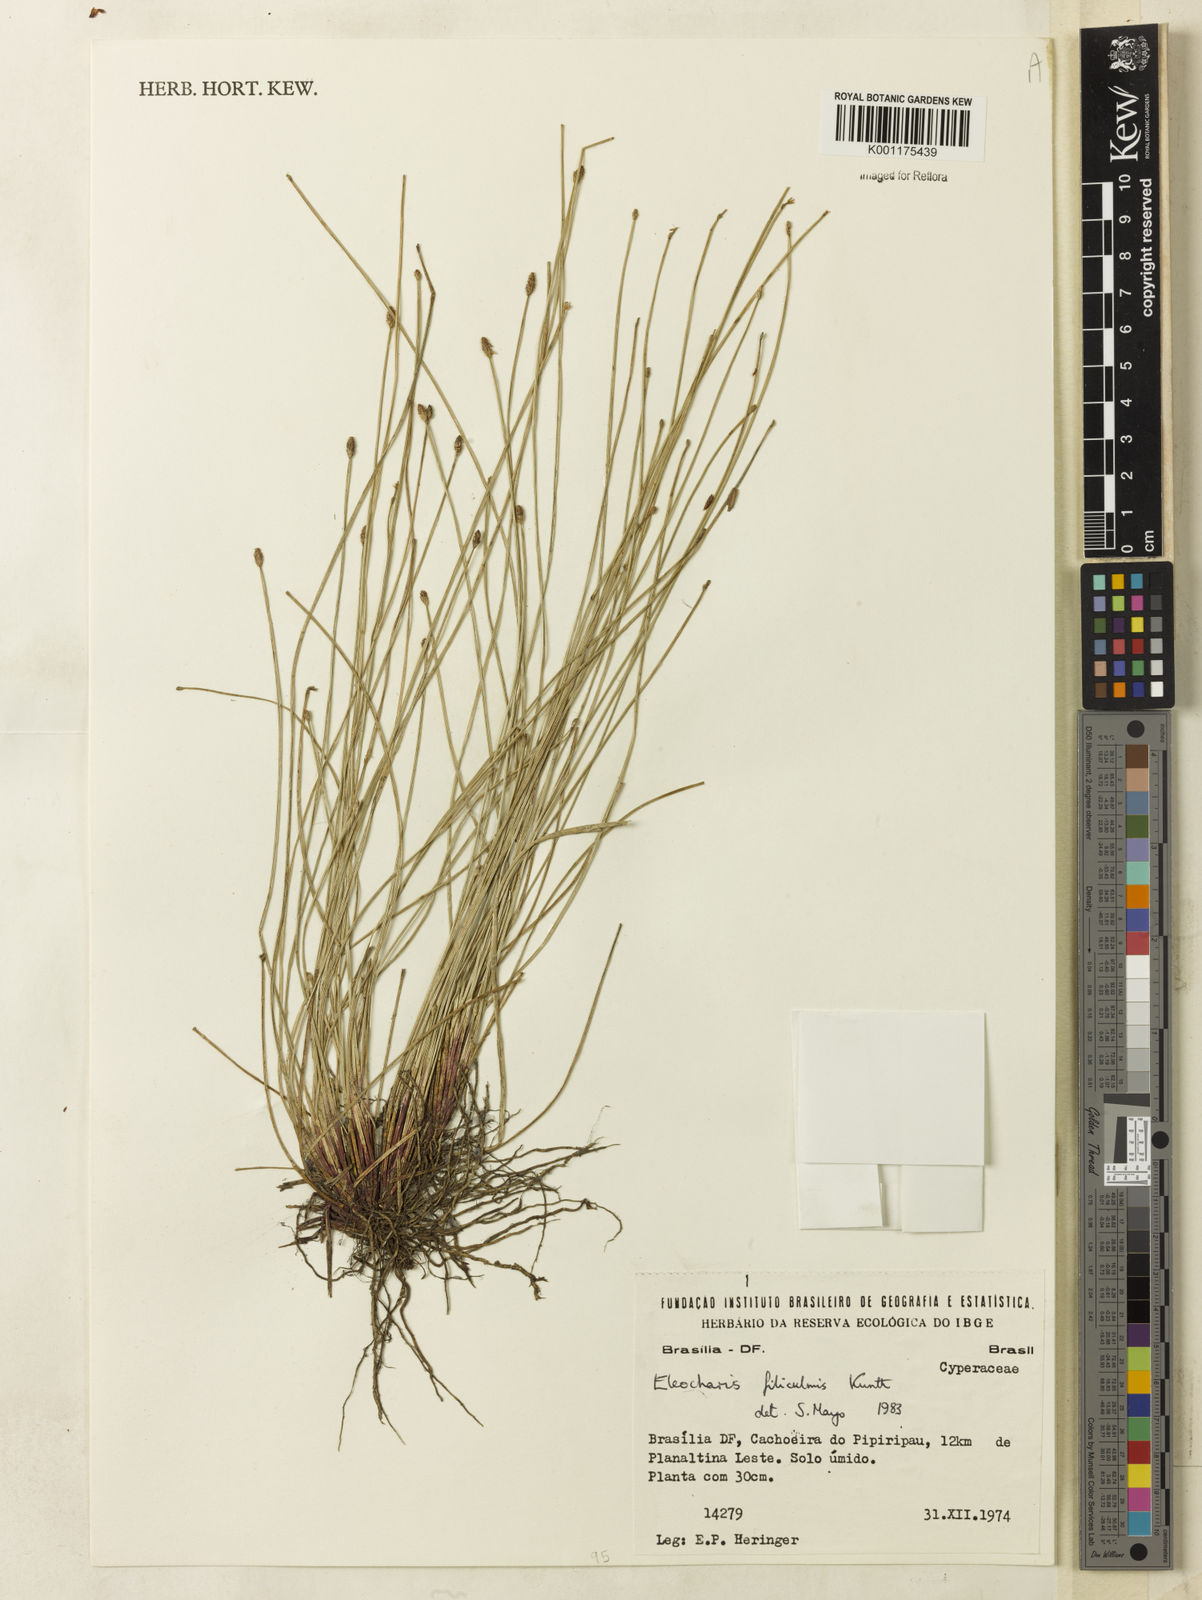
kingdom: Plantae
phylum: Tracheophyta
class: Liliopsida
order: Poales
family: Cyperaceae
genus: Eleocharis
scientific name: Eleocharis filiculmis
